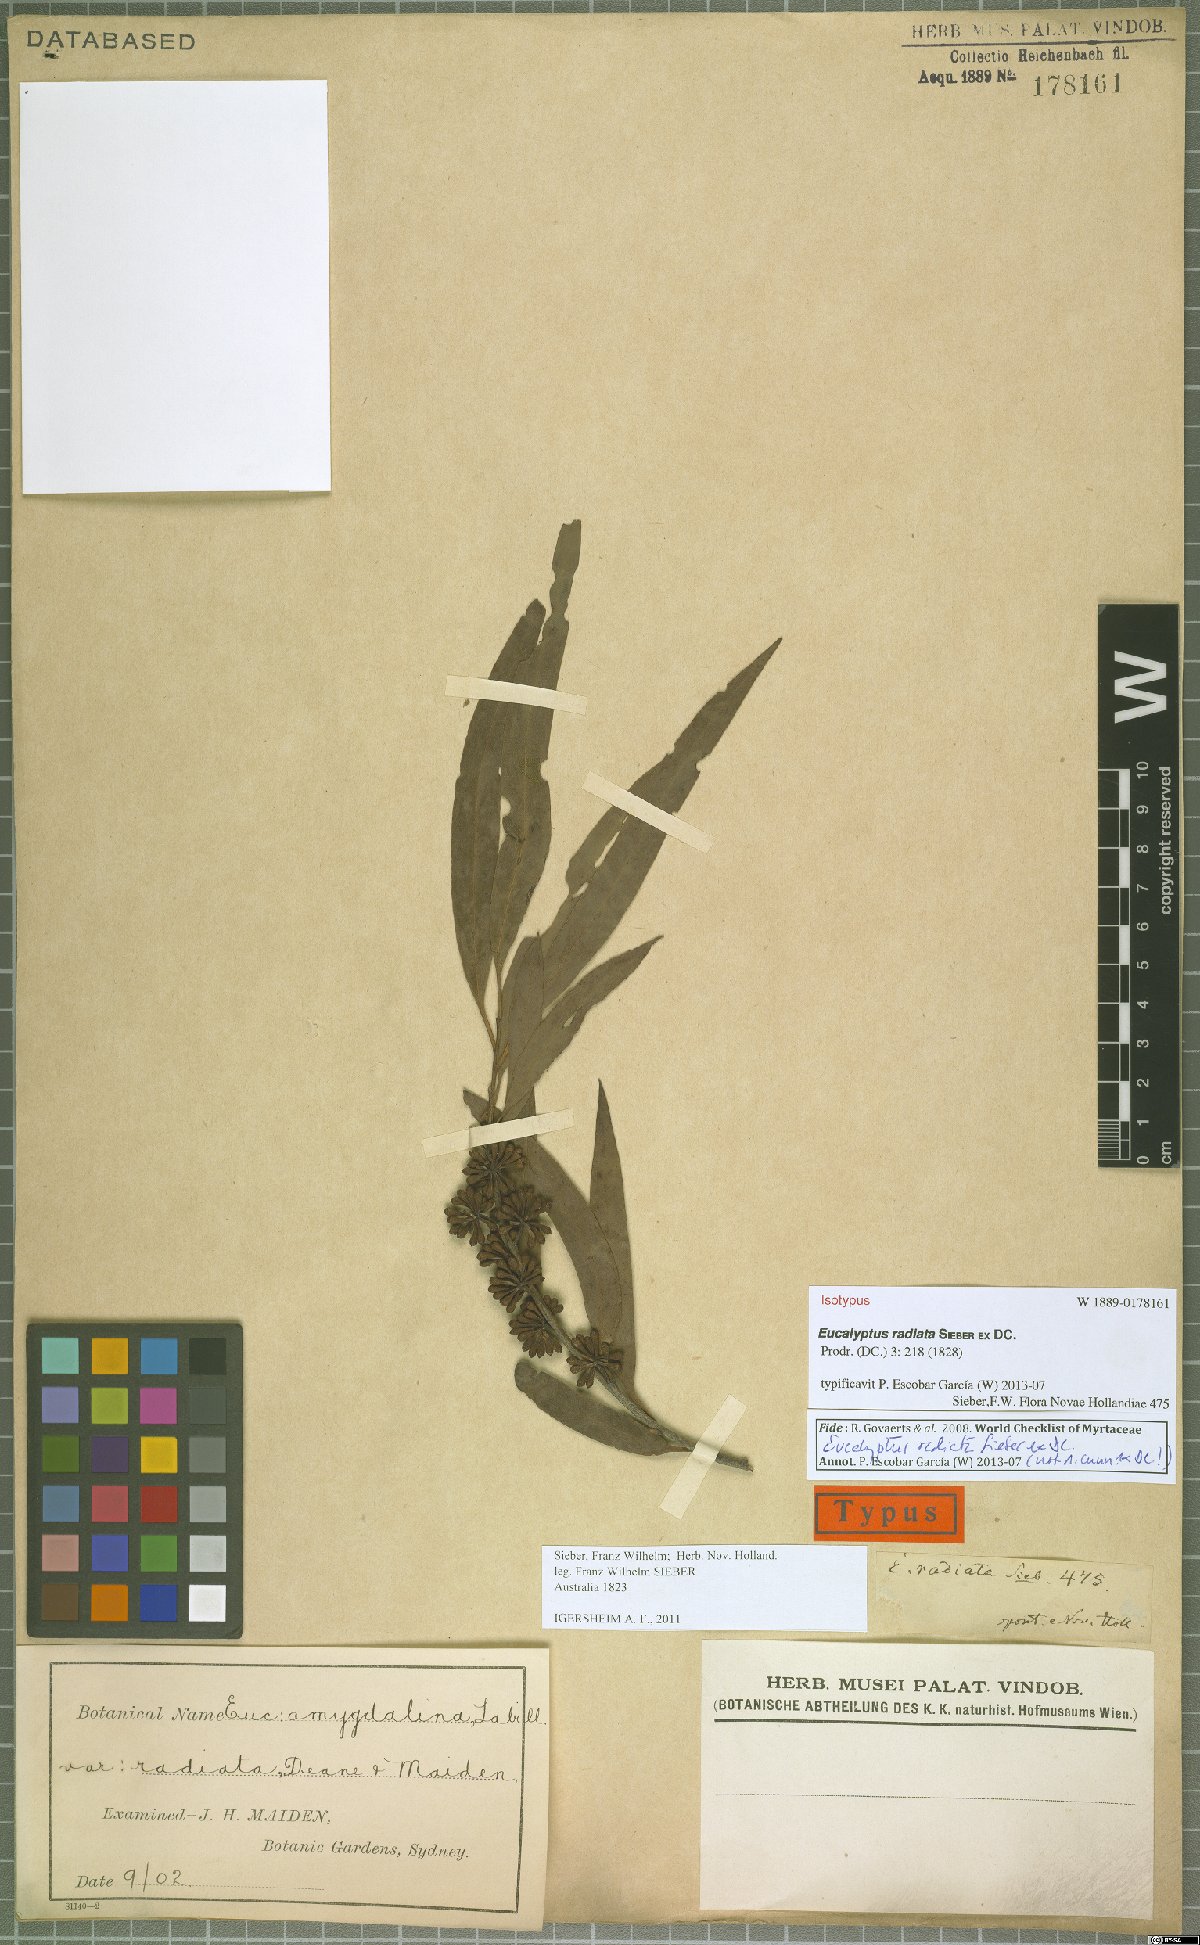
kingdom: Plantae
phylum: Tracheophyta
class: Magnoliopsida
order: Myrtales
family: Myrtaceae
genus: Eucalyptus
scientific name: Eucalyptus radiata
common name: Narrow-leaved-peppermint
